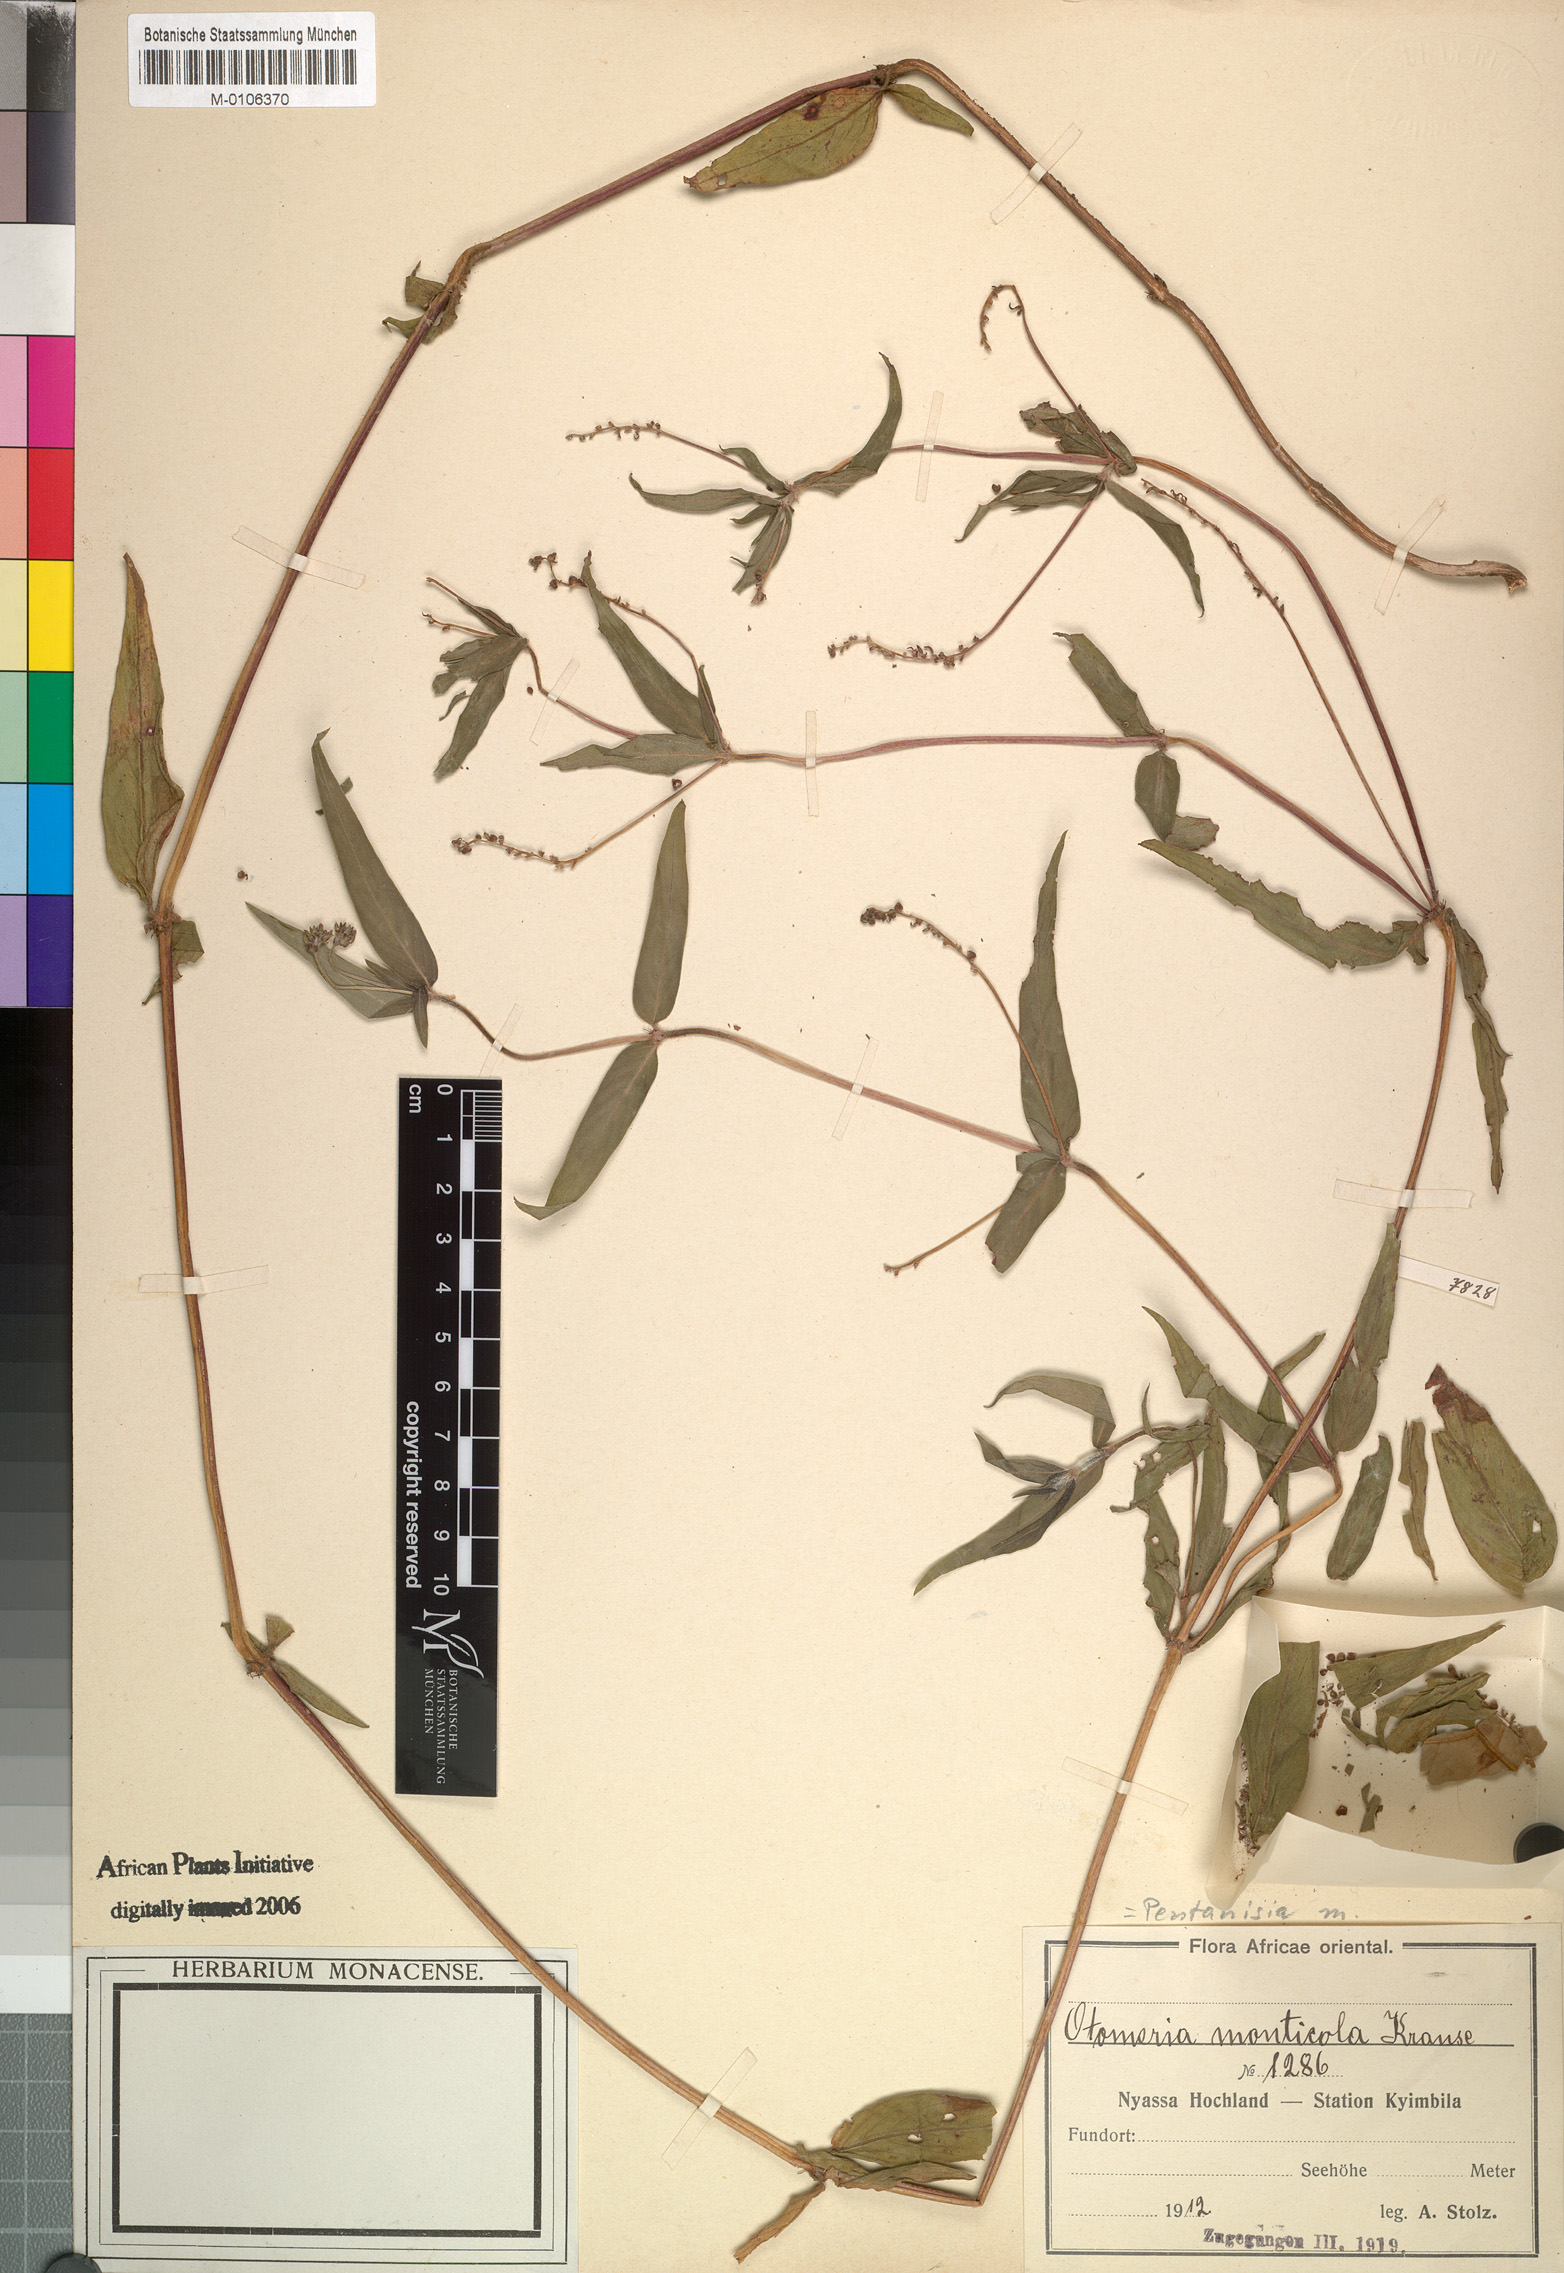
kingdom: Plantae
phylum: Tracheophyta
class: Magnoliopsida
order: Gentianales
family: Rubiaceae
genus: Pentanisia
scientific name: Pentanisia monticola
